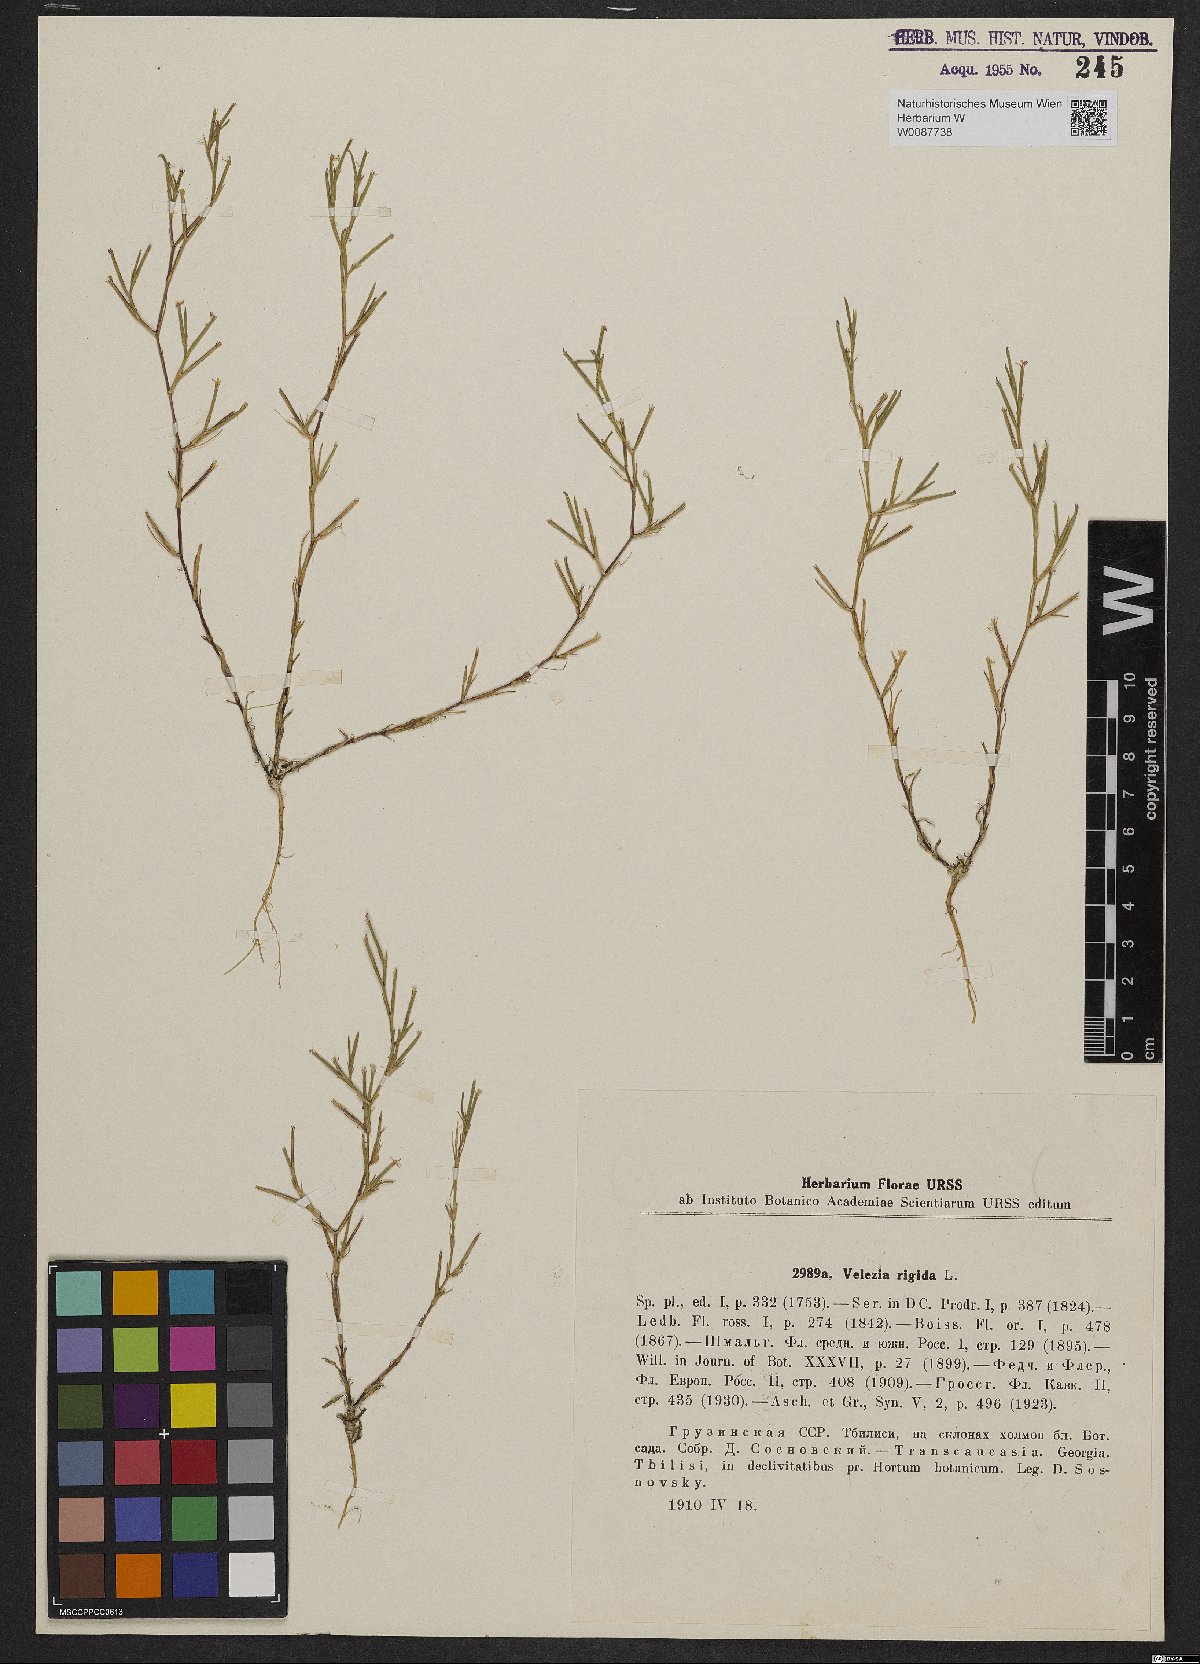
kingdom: Plantae
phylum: Tracheophyta
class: Magnoliopsida
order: Caryophyllales
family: Caryophyllaceae
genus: Dianthus
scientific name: Dianthus nudiflorus
